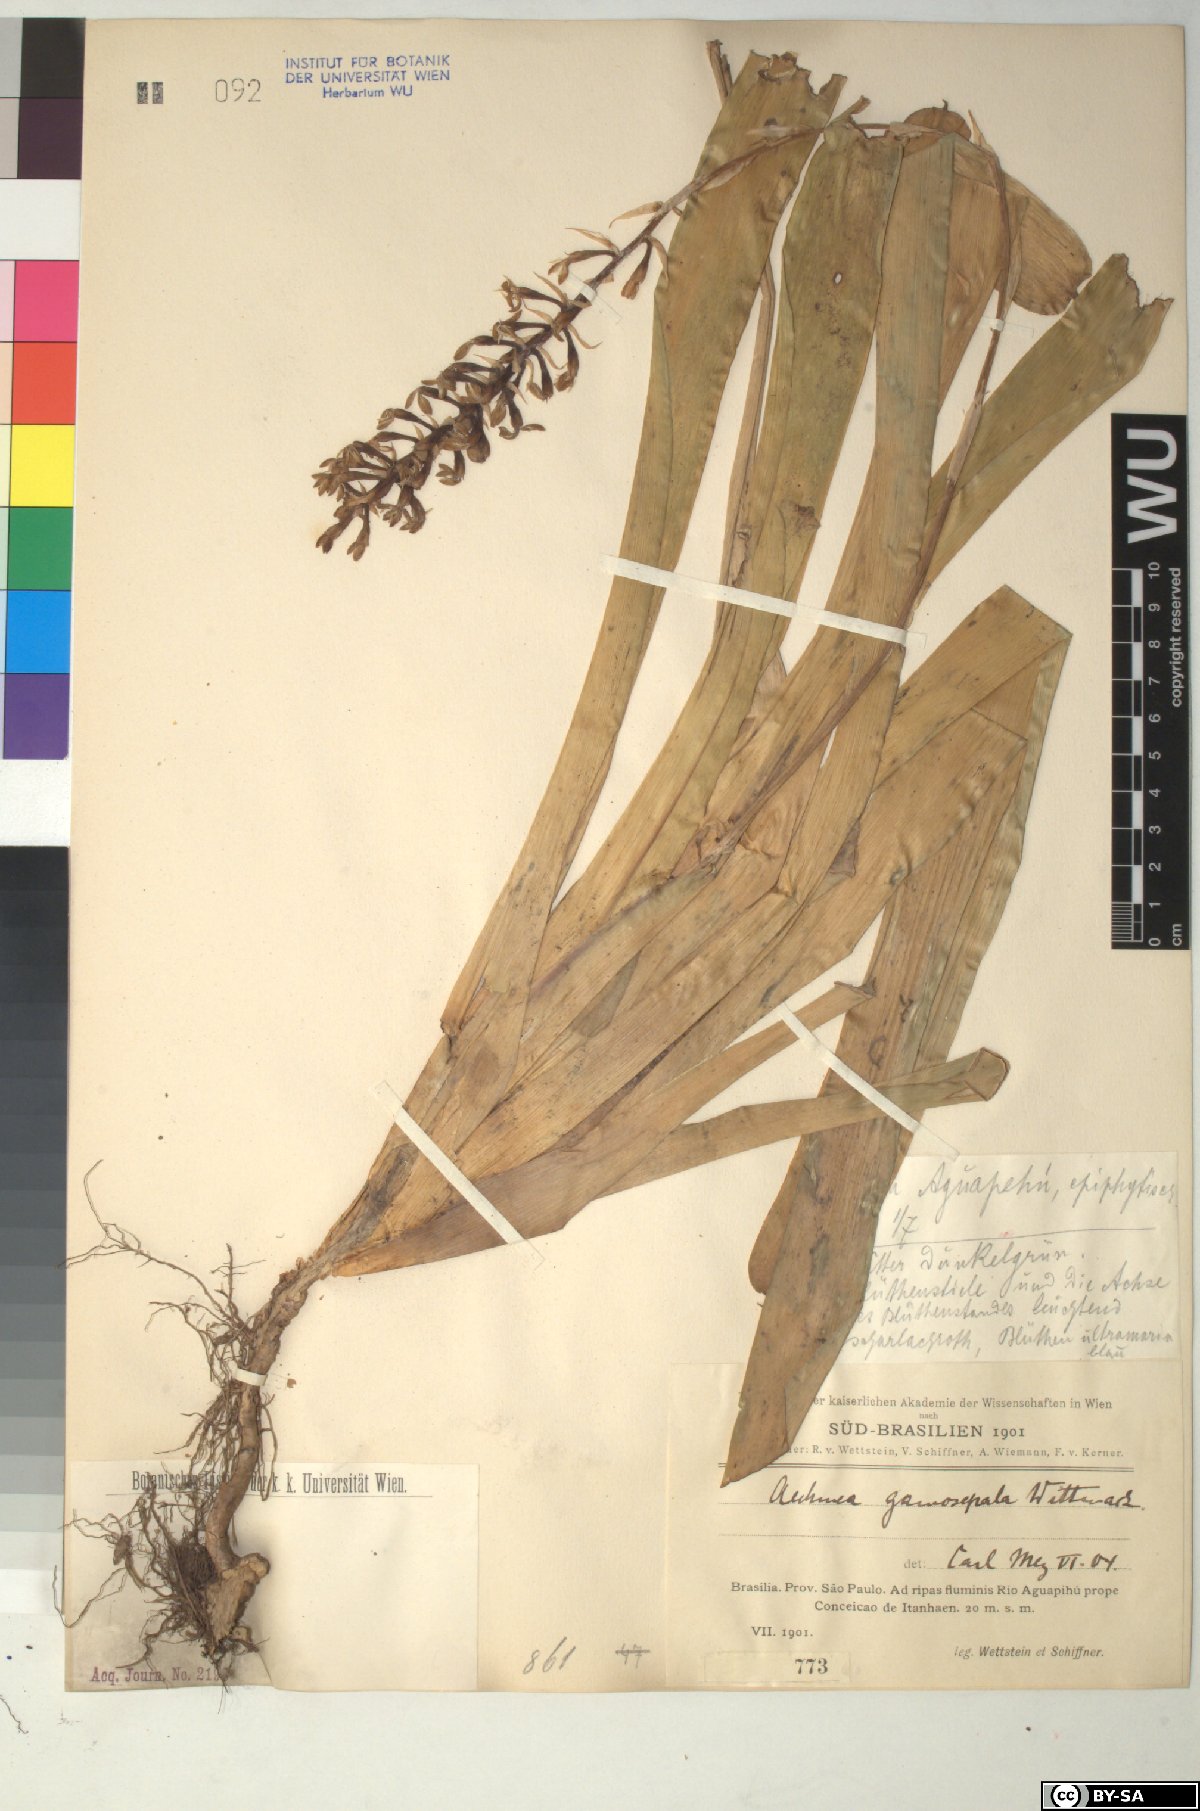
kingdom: Plantae
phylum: Tracheophyta
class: Liliopsida
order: Poales
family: Bromeliaceae
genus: Aechmea
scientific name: Aechmea
